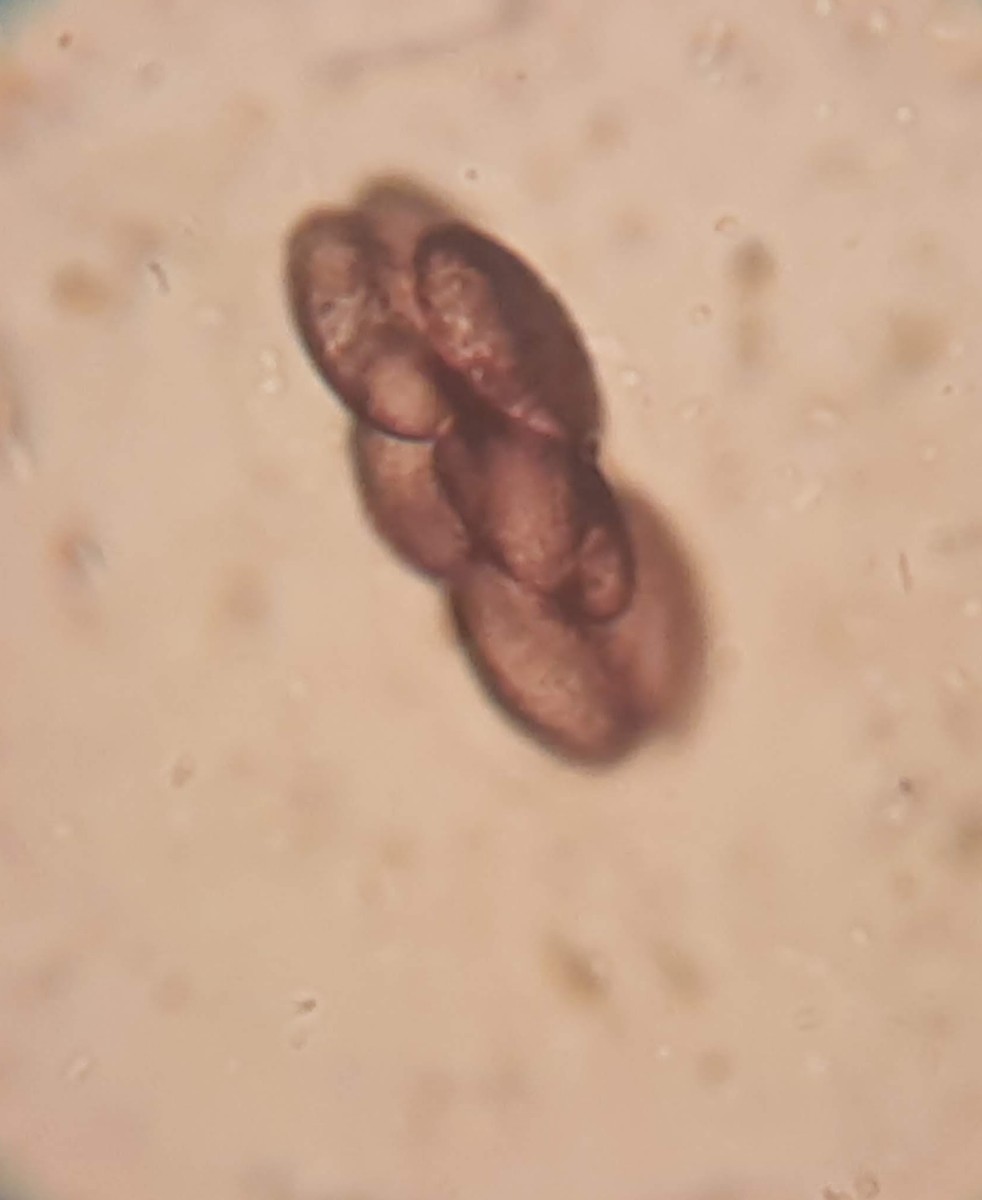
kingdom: Fungi
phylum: Ascomycota
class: Pezizomycetes
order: Pezizales
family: Ascobolaceae
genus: Saccobolus
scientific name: Saccobolus obscurus
